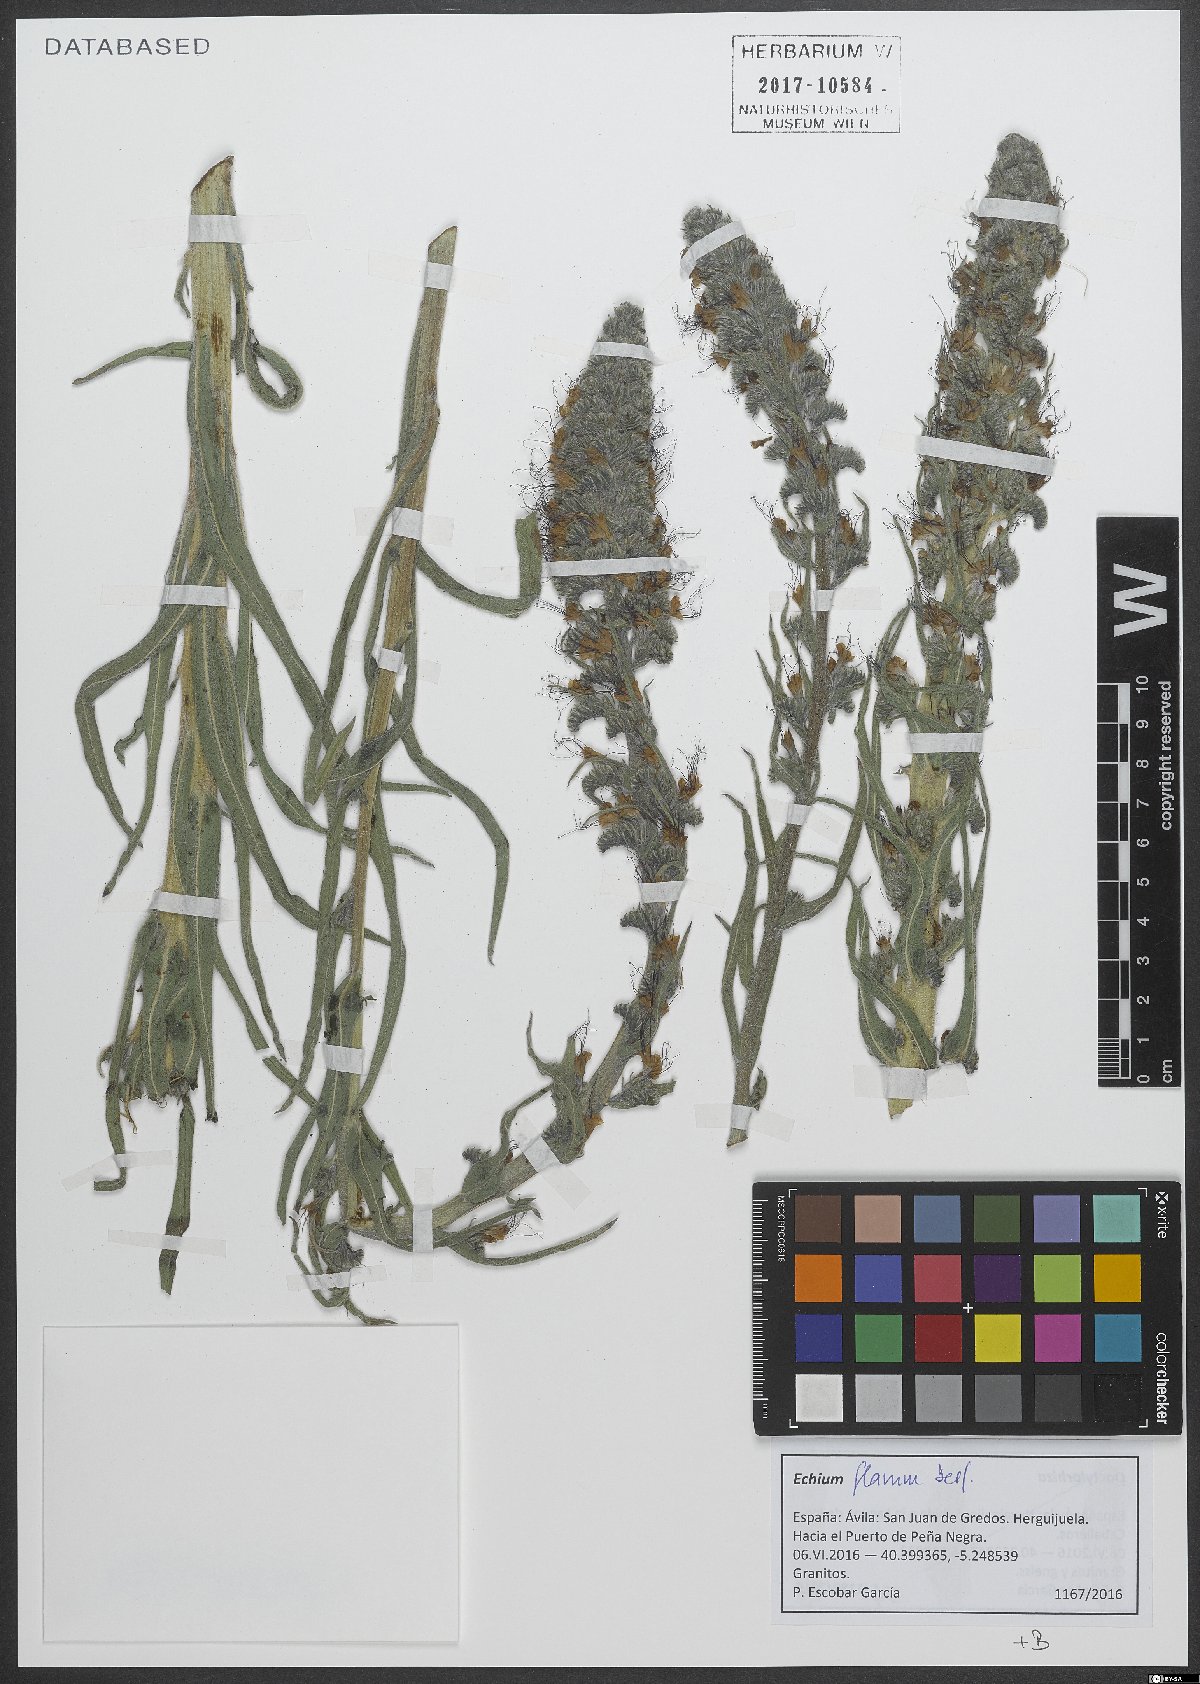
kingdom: Plantae
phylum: Tracheophyta
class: Magnoliopsida
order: Boraginales
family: Boraginaceae
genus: Echium
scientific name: Echium flavum
